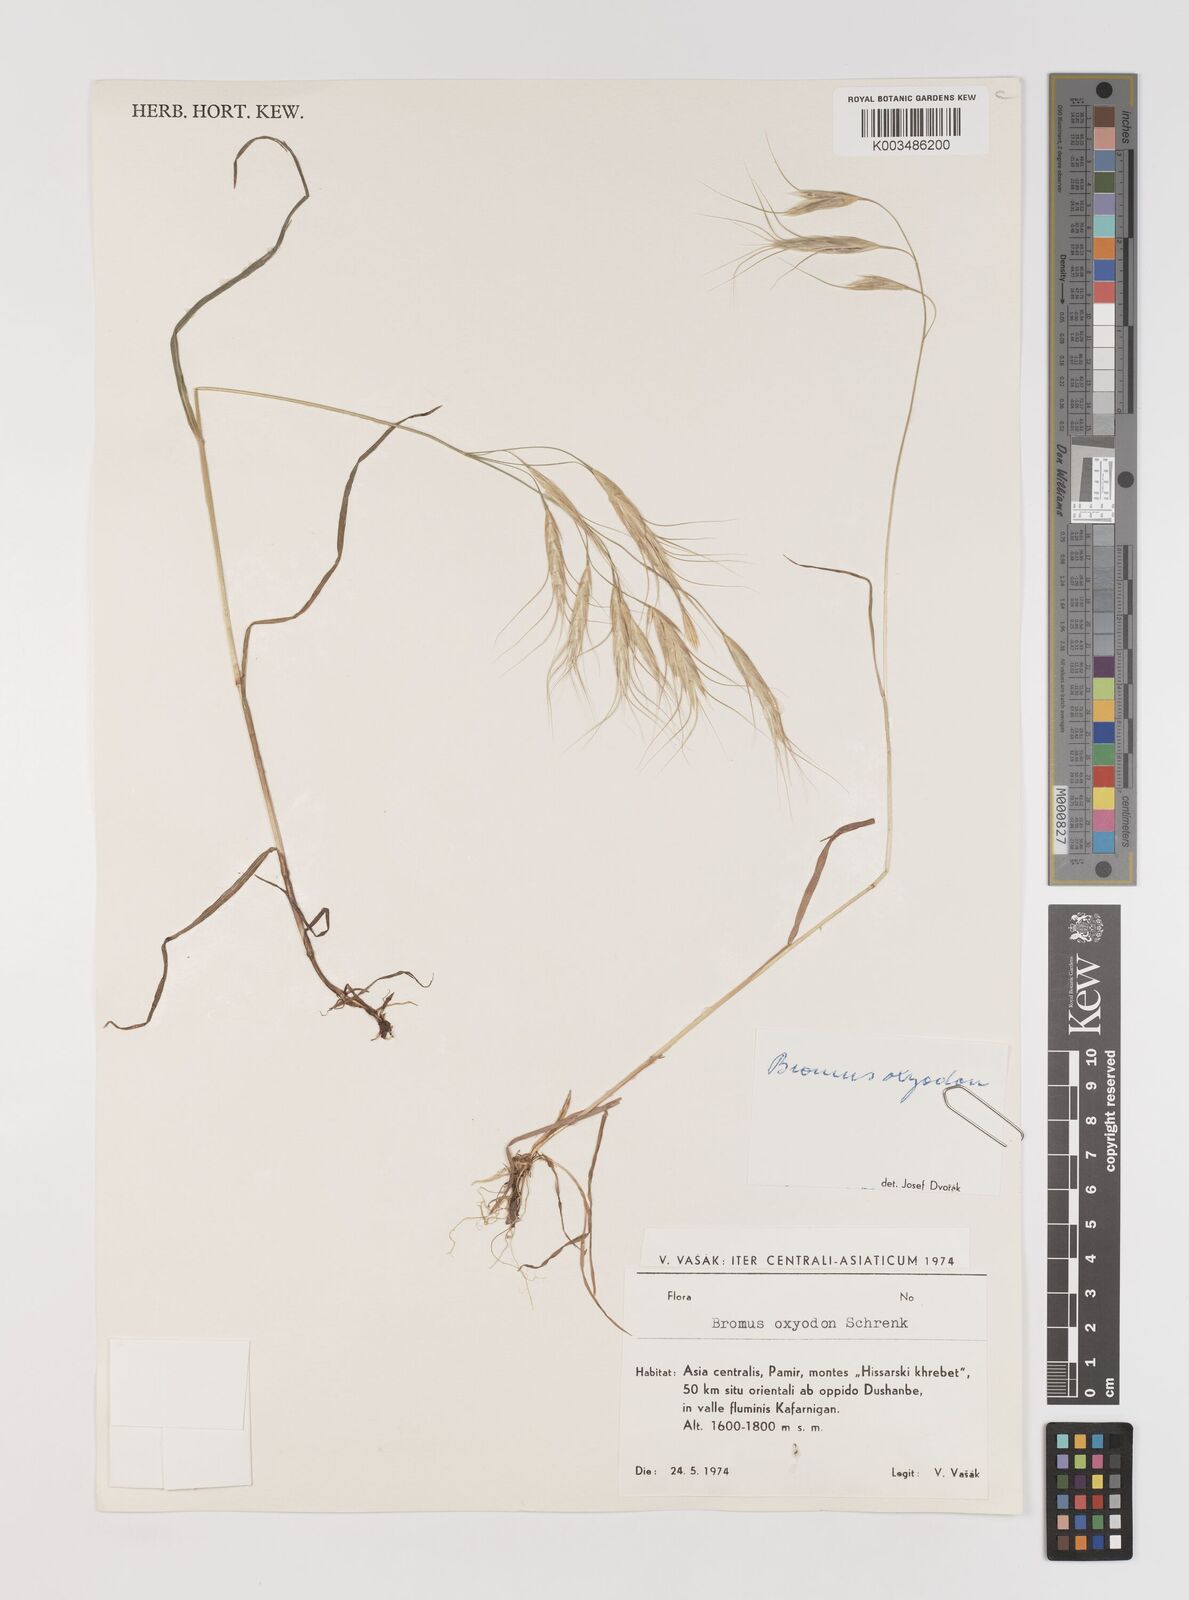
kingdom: Plantae
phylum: Tracheophyta
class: Liliopsida
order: Poales
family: Poaceae
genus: Bromus
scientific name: Bromus oxyodon
